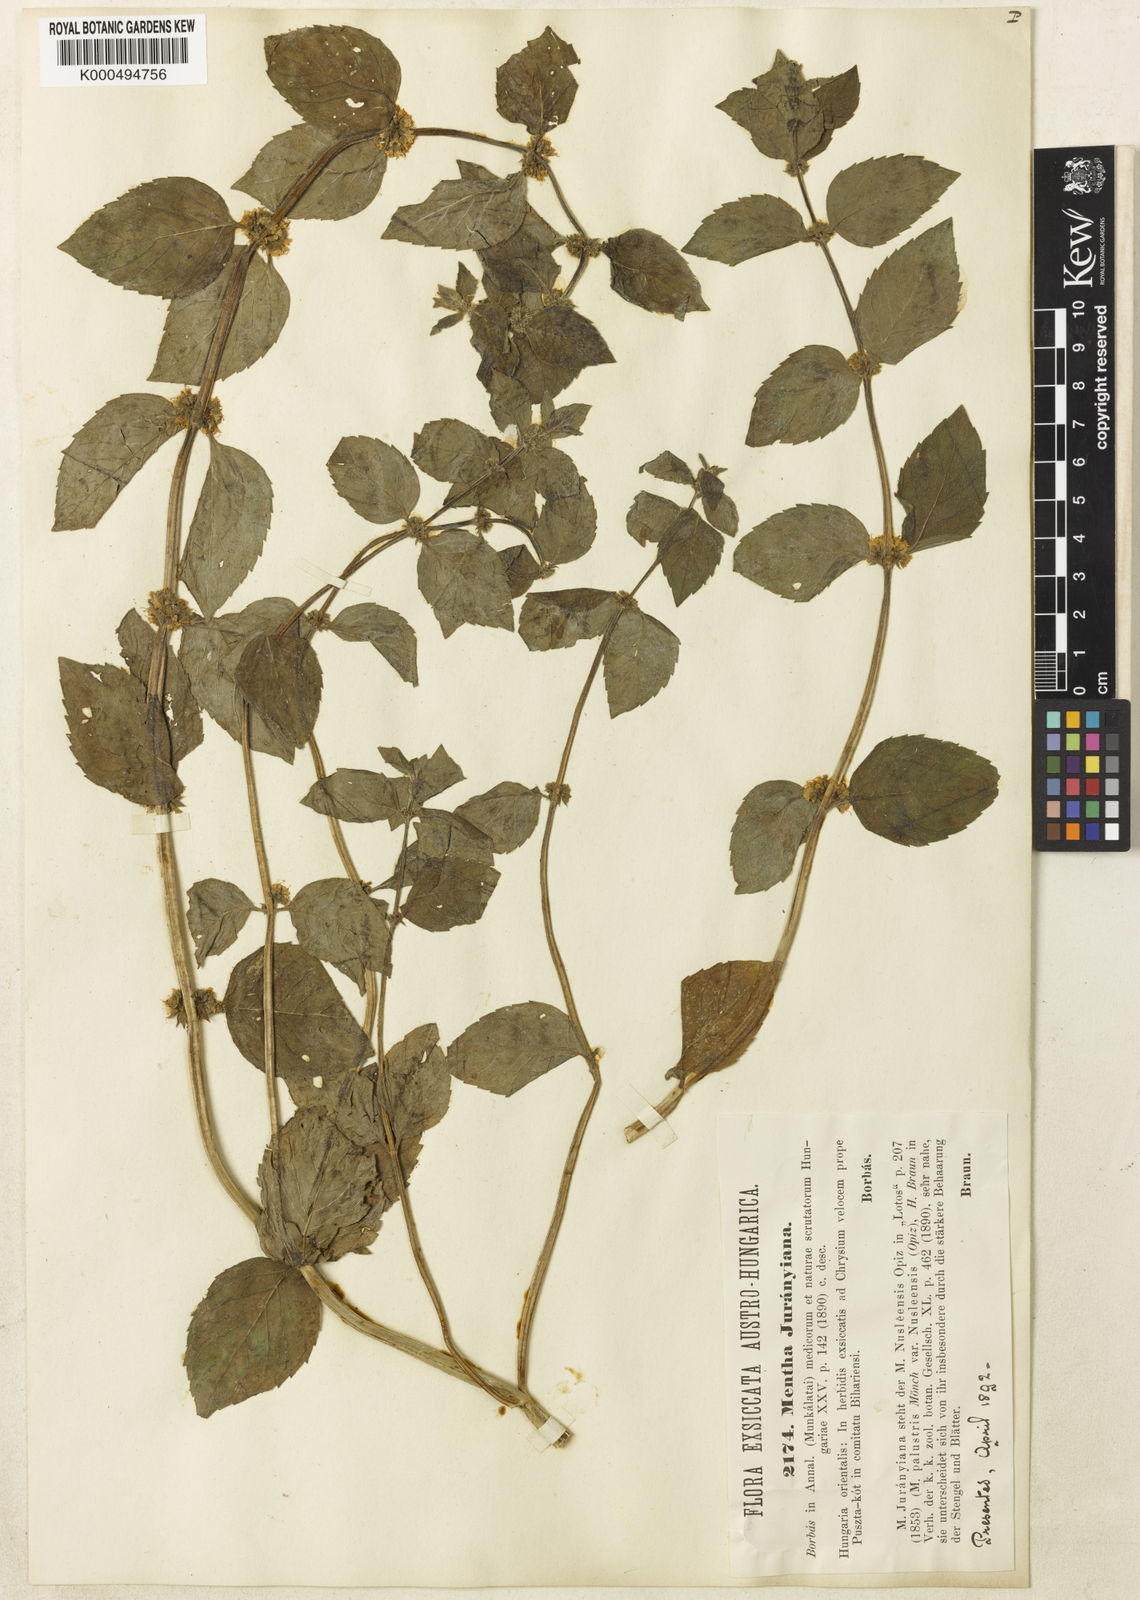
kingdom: Plantae
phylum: Tracheophyta
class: Magnoliopsida
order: Lamiales
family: Lamiaceae
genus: Mentha
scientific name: Mentha arvensis
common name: Corn mint
